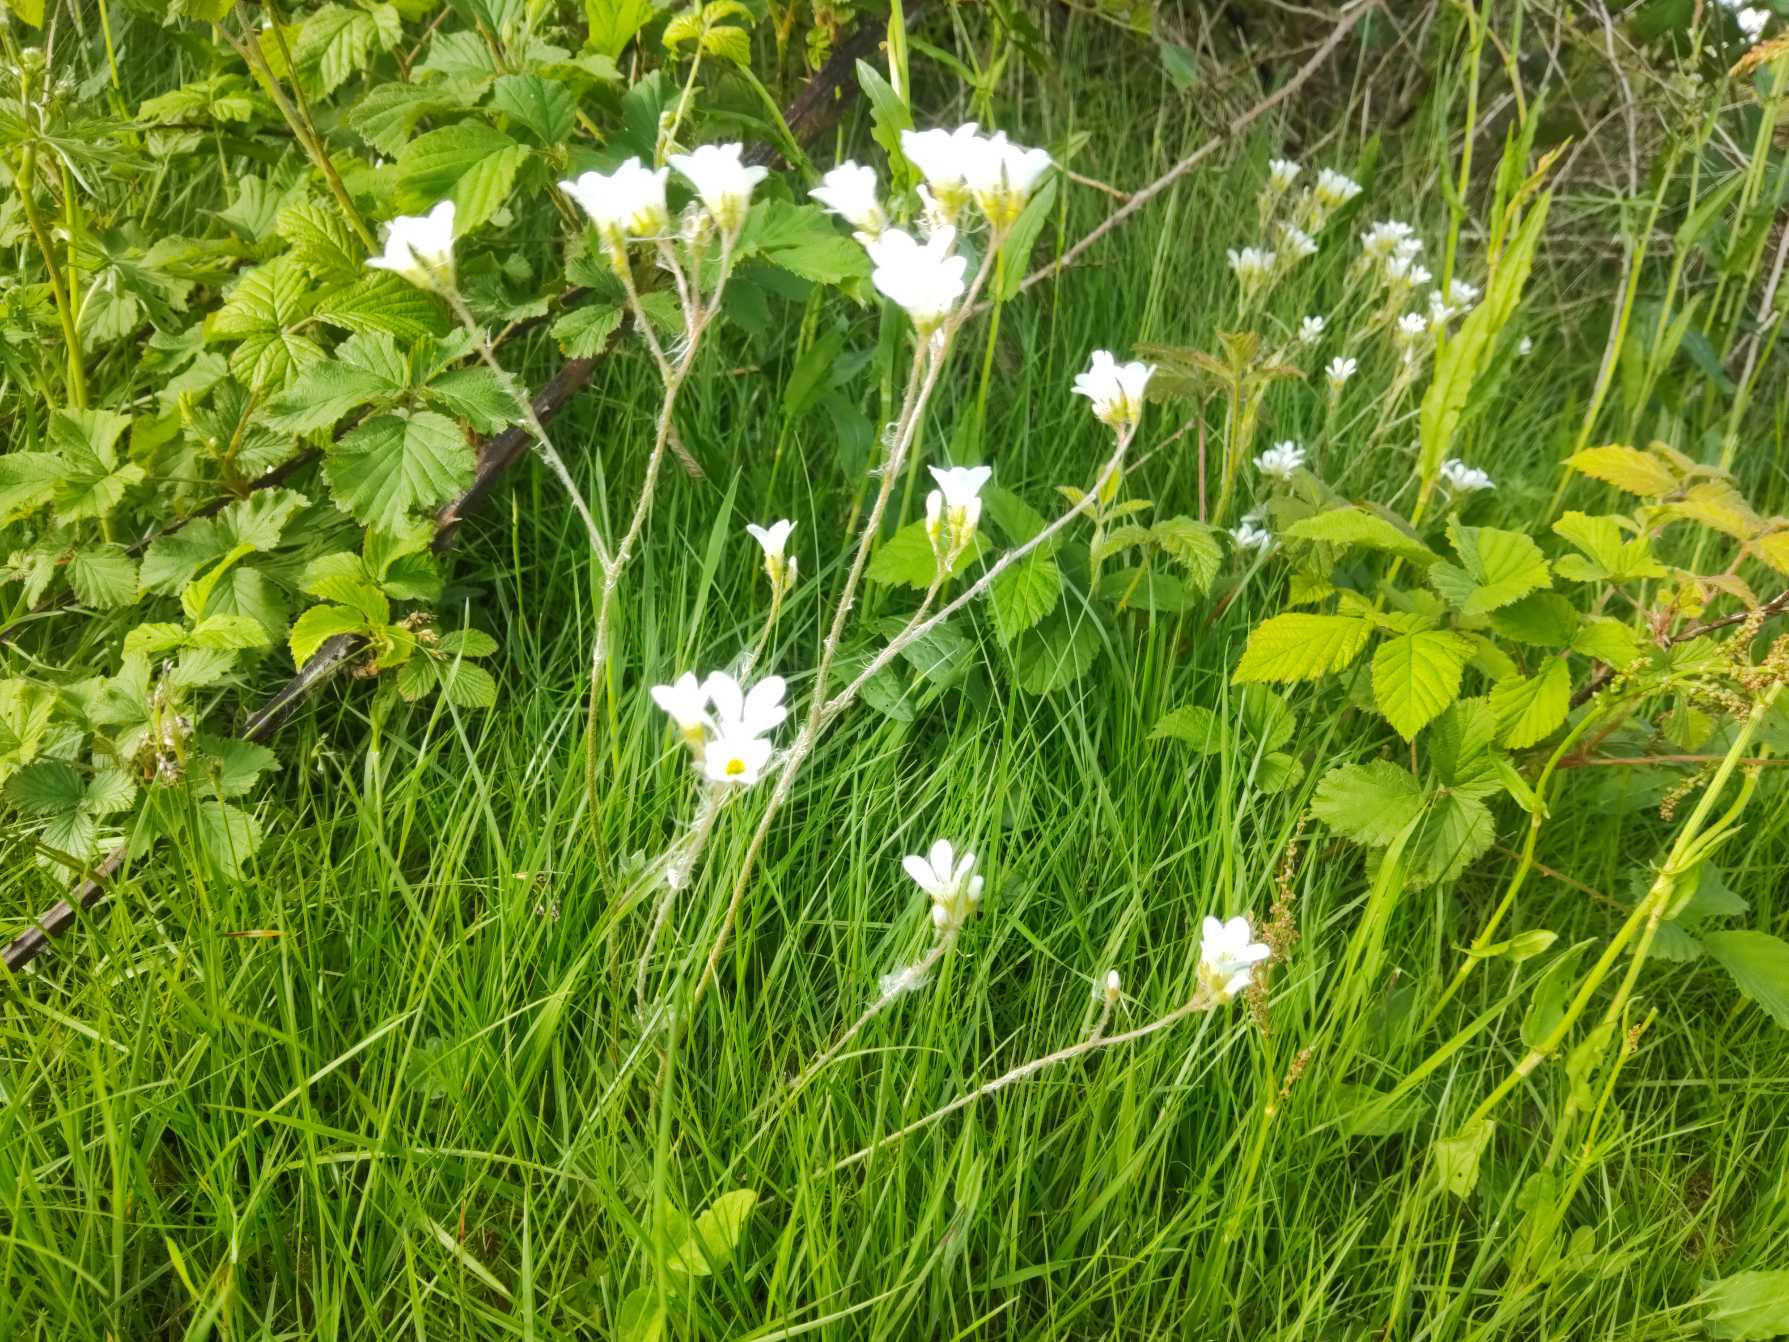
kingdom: Plantae
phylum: Tracheophyta
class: Magnoliopsida
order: Saxifragales
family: Saxifragaceae
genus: Saxifraga
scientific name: Saxifraga granulata
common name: Kornet stenbræk
